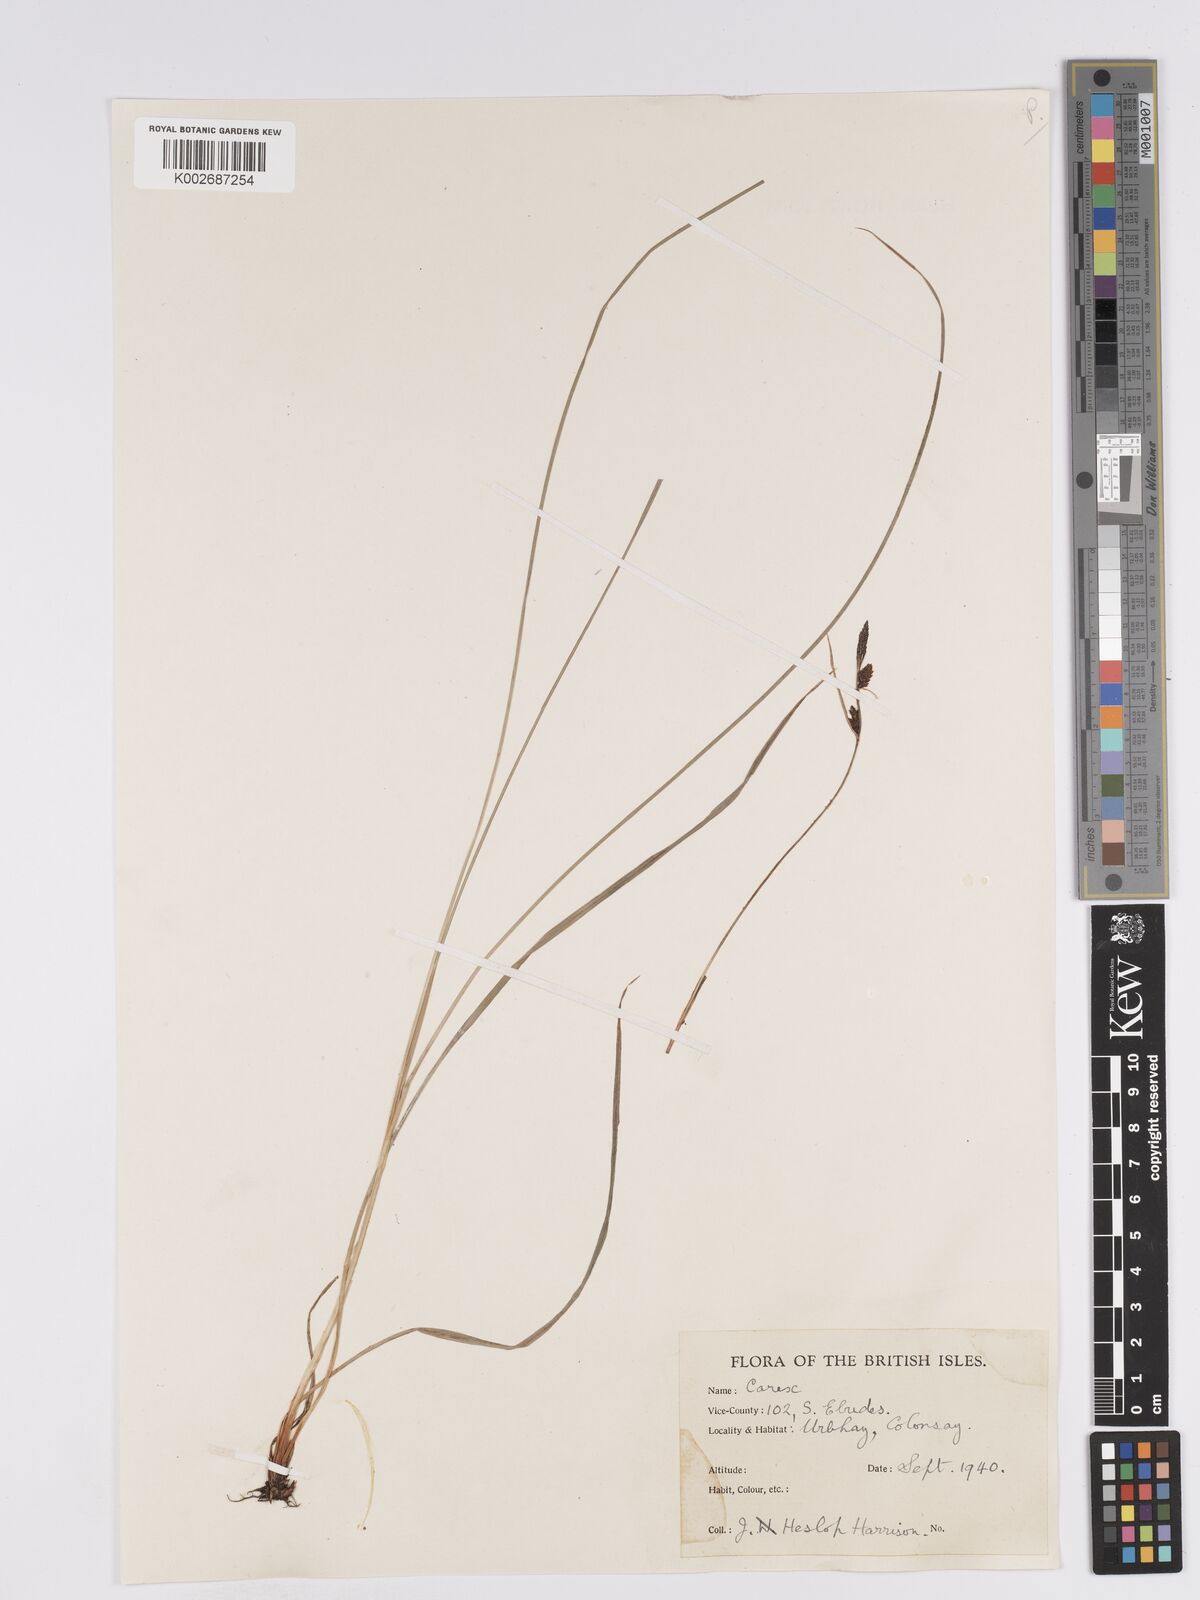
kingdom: Plantae
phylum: Tracheophyta
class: Liliopsida
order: Poales
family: Cyperaceae
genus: Carex
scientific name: Carex nigra
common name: Common sedge
